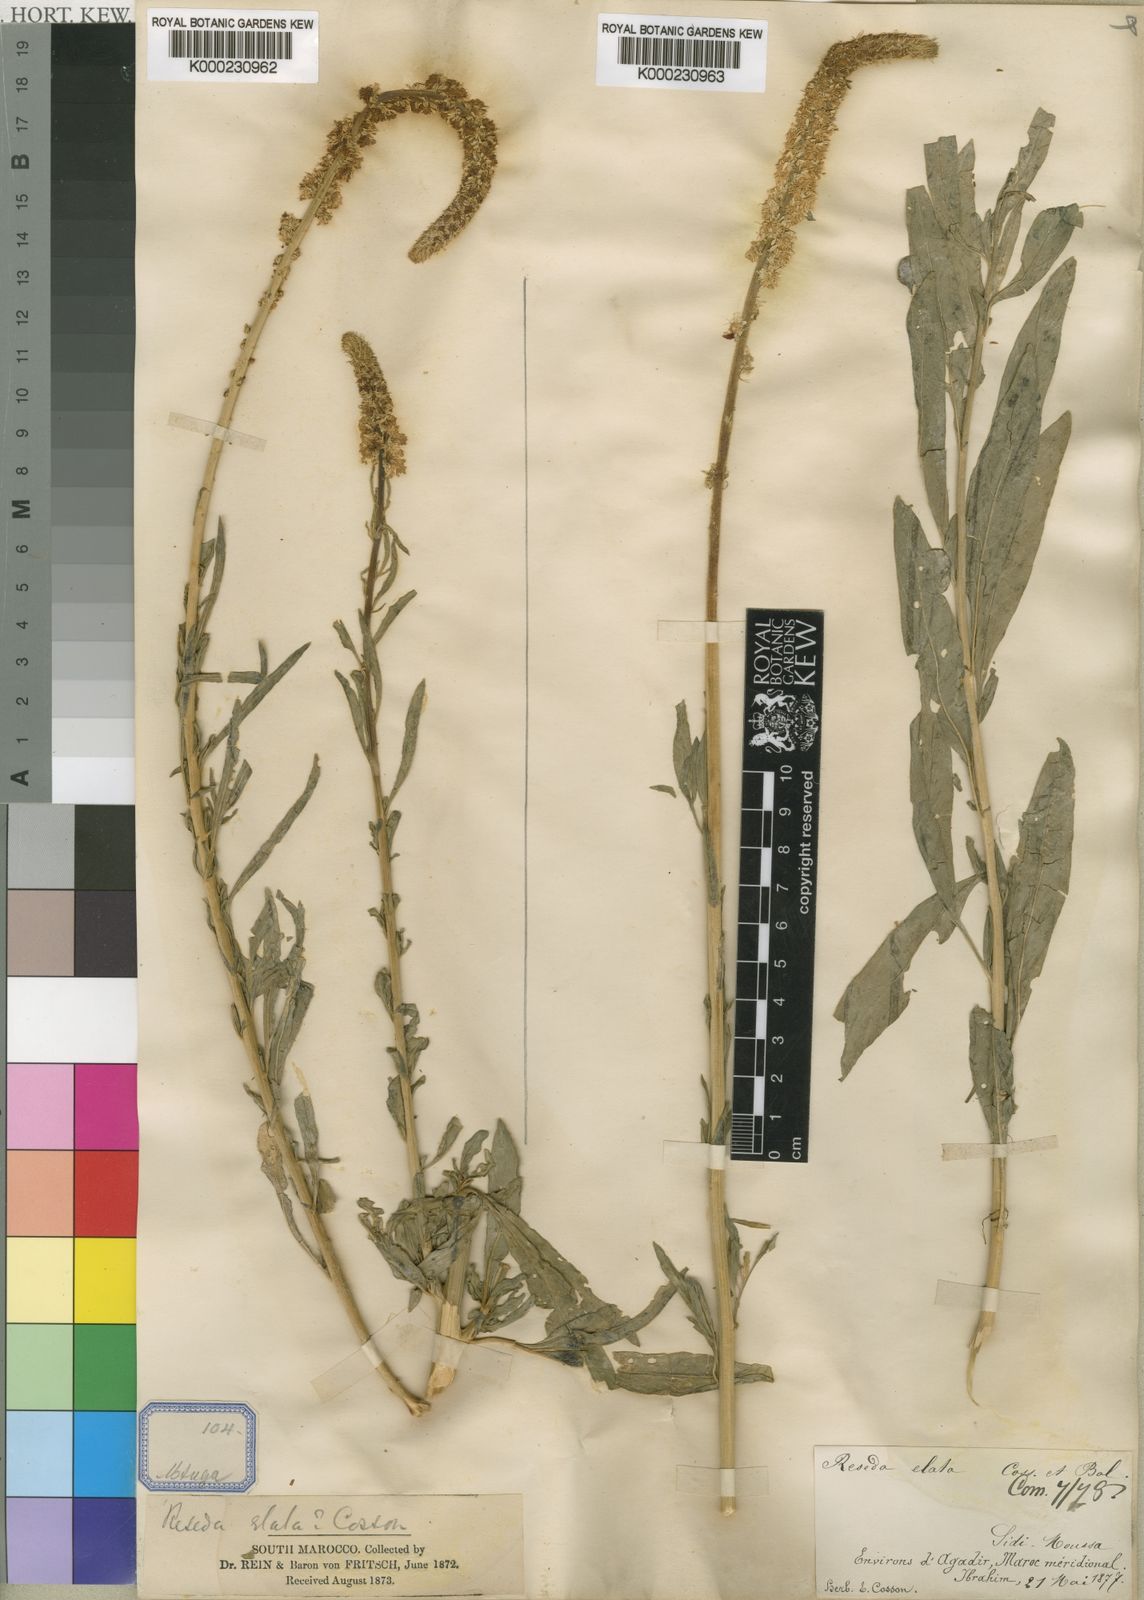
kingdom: Plantae
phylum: Tracheophyta
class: Magnoliopsida
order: Brassicales
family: Resedaceae
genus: Reseda
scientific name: Reseda
